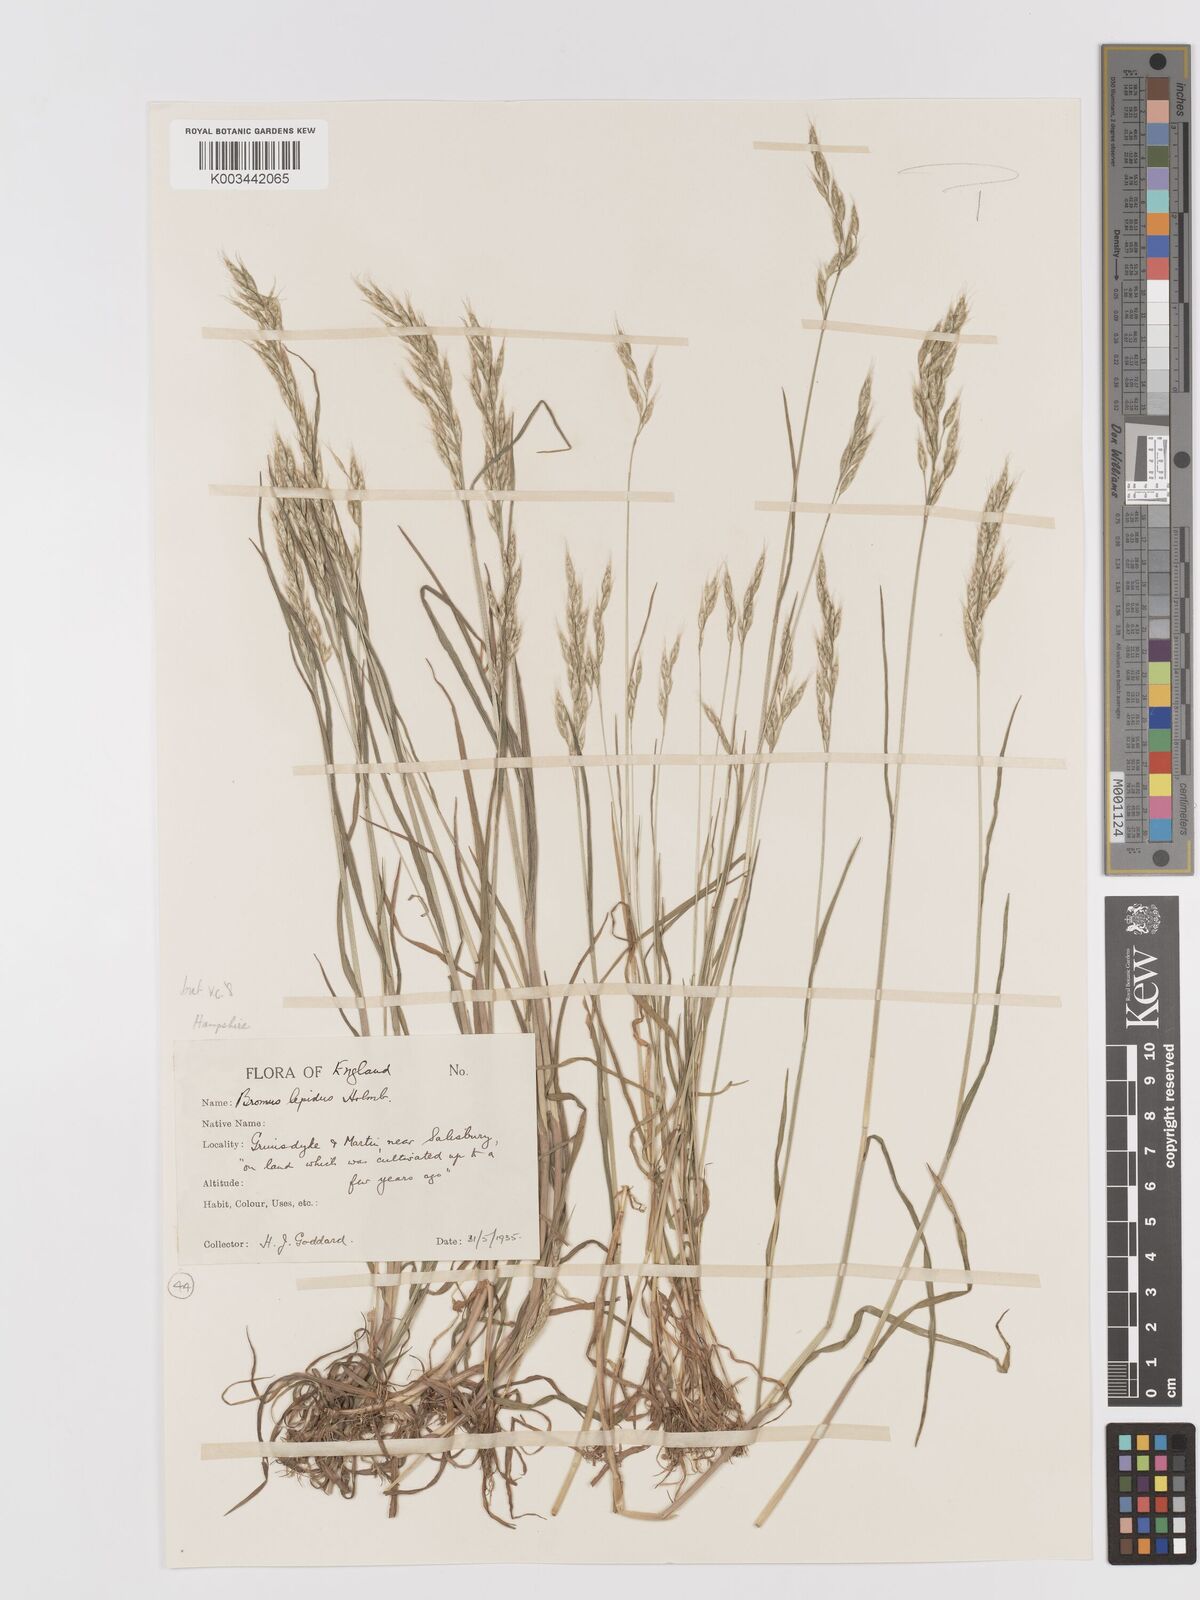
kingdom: Plantae
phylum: Tracheophyta
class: Liliopsida
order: Poales
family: Poaceae
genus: Bromus
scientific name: Bromus lepidus
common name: Slender soft-brome
